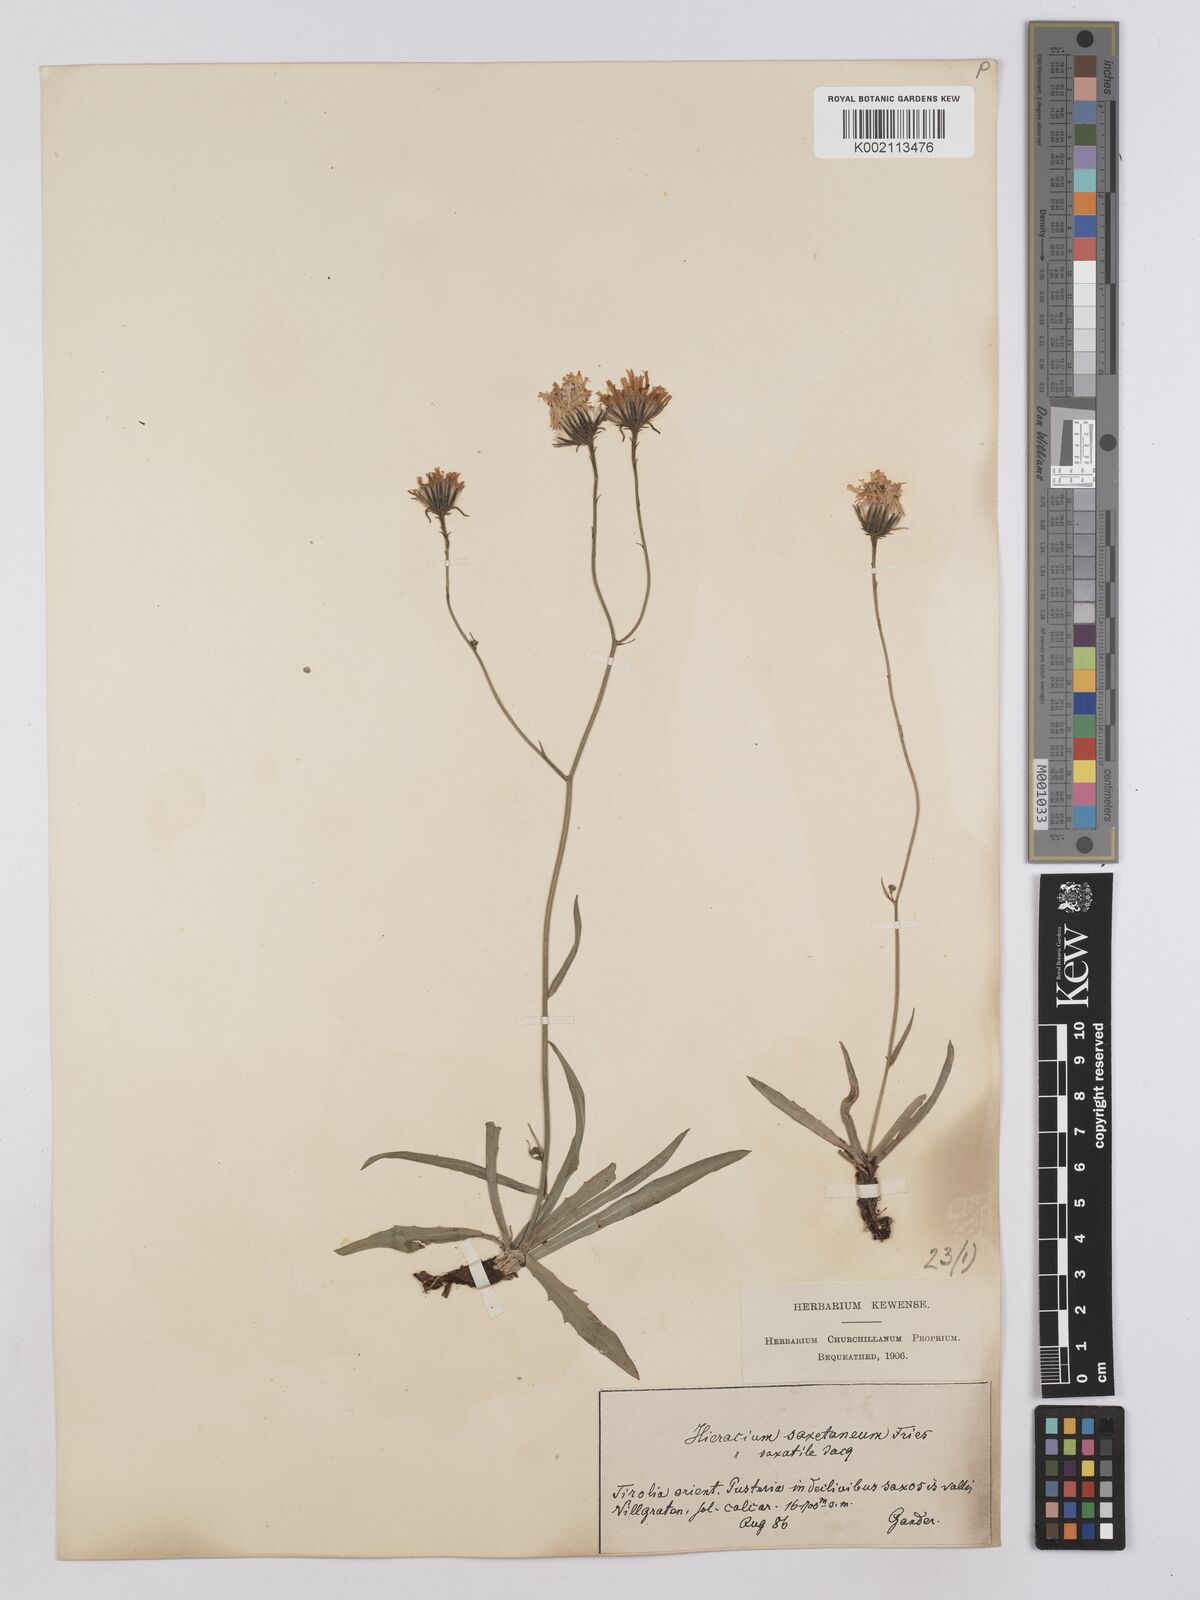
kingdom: Plantae
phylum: Tracheophyta
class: Magnoliopsida
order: Asterales
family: Asteraceae
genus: Hieracium
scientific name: Hieracium saxatile
